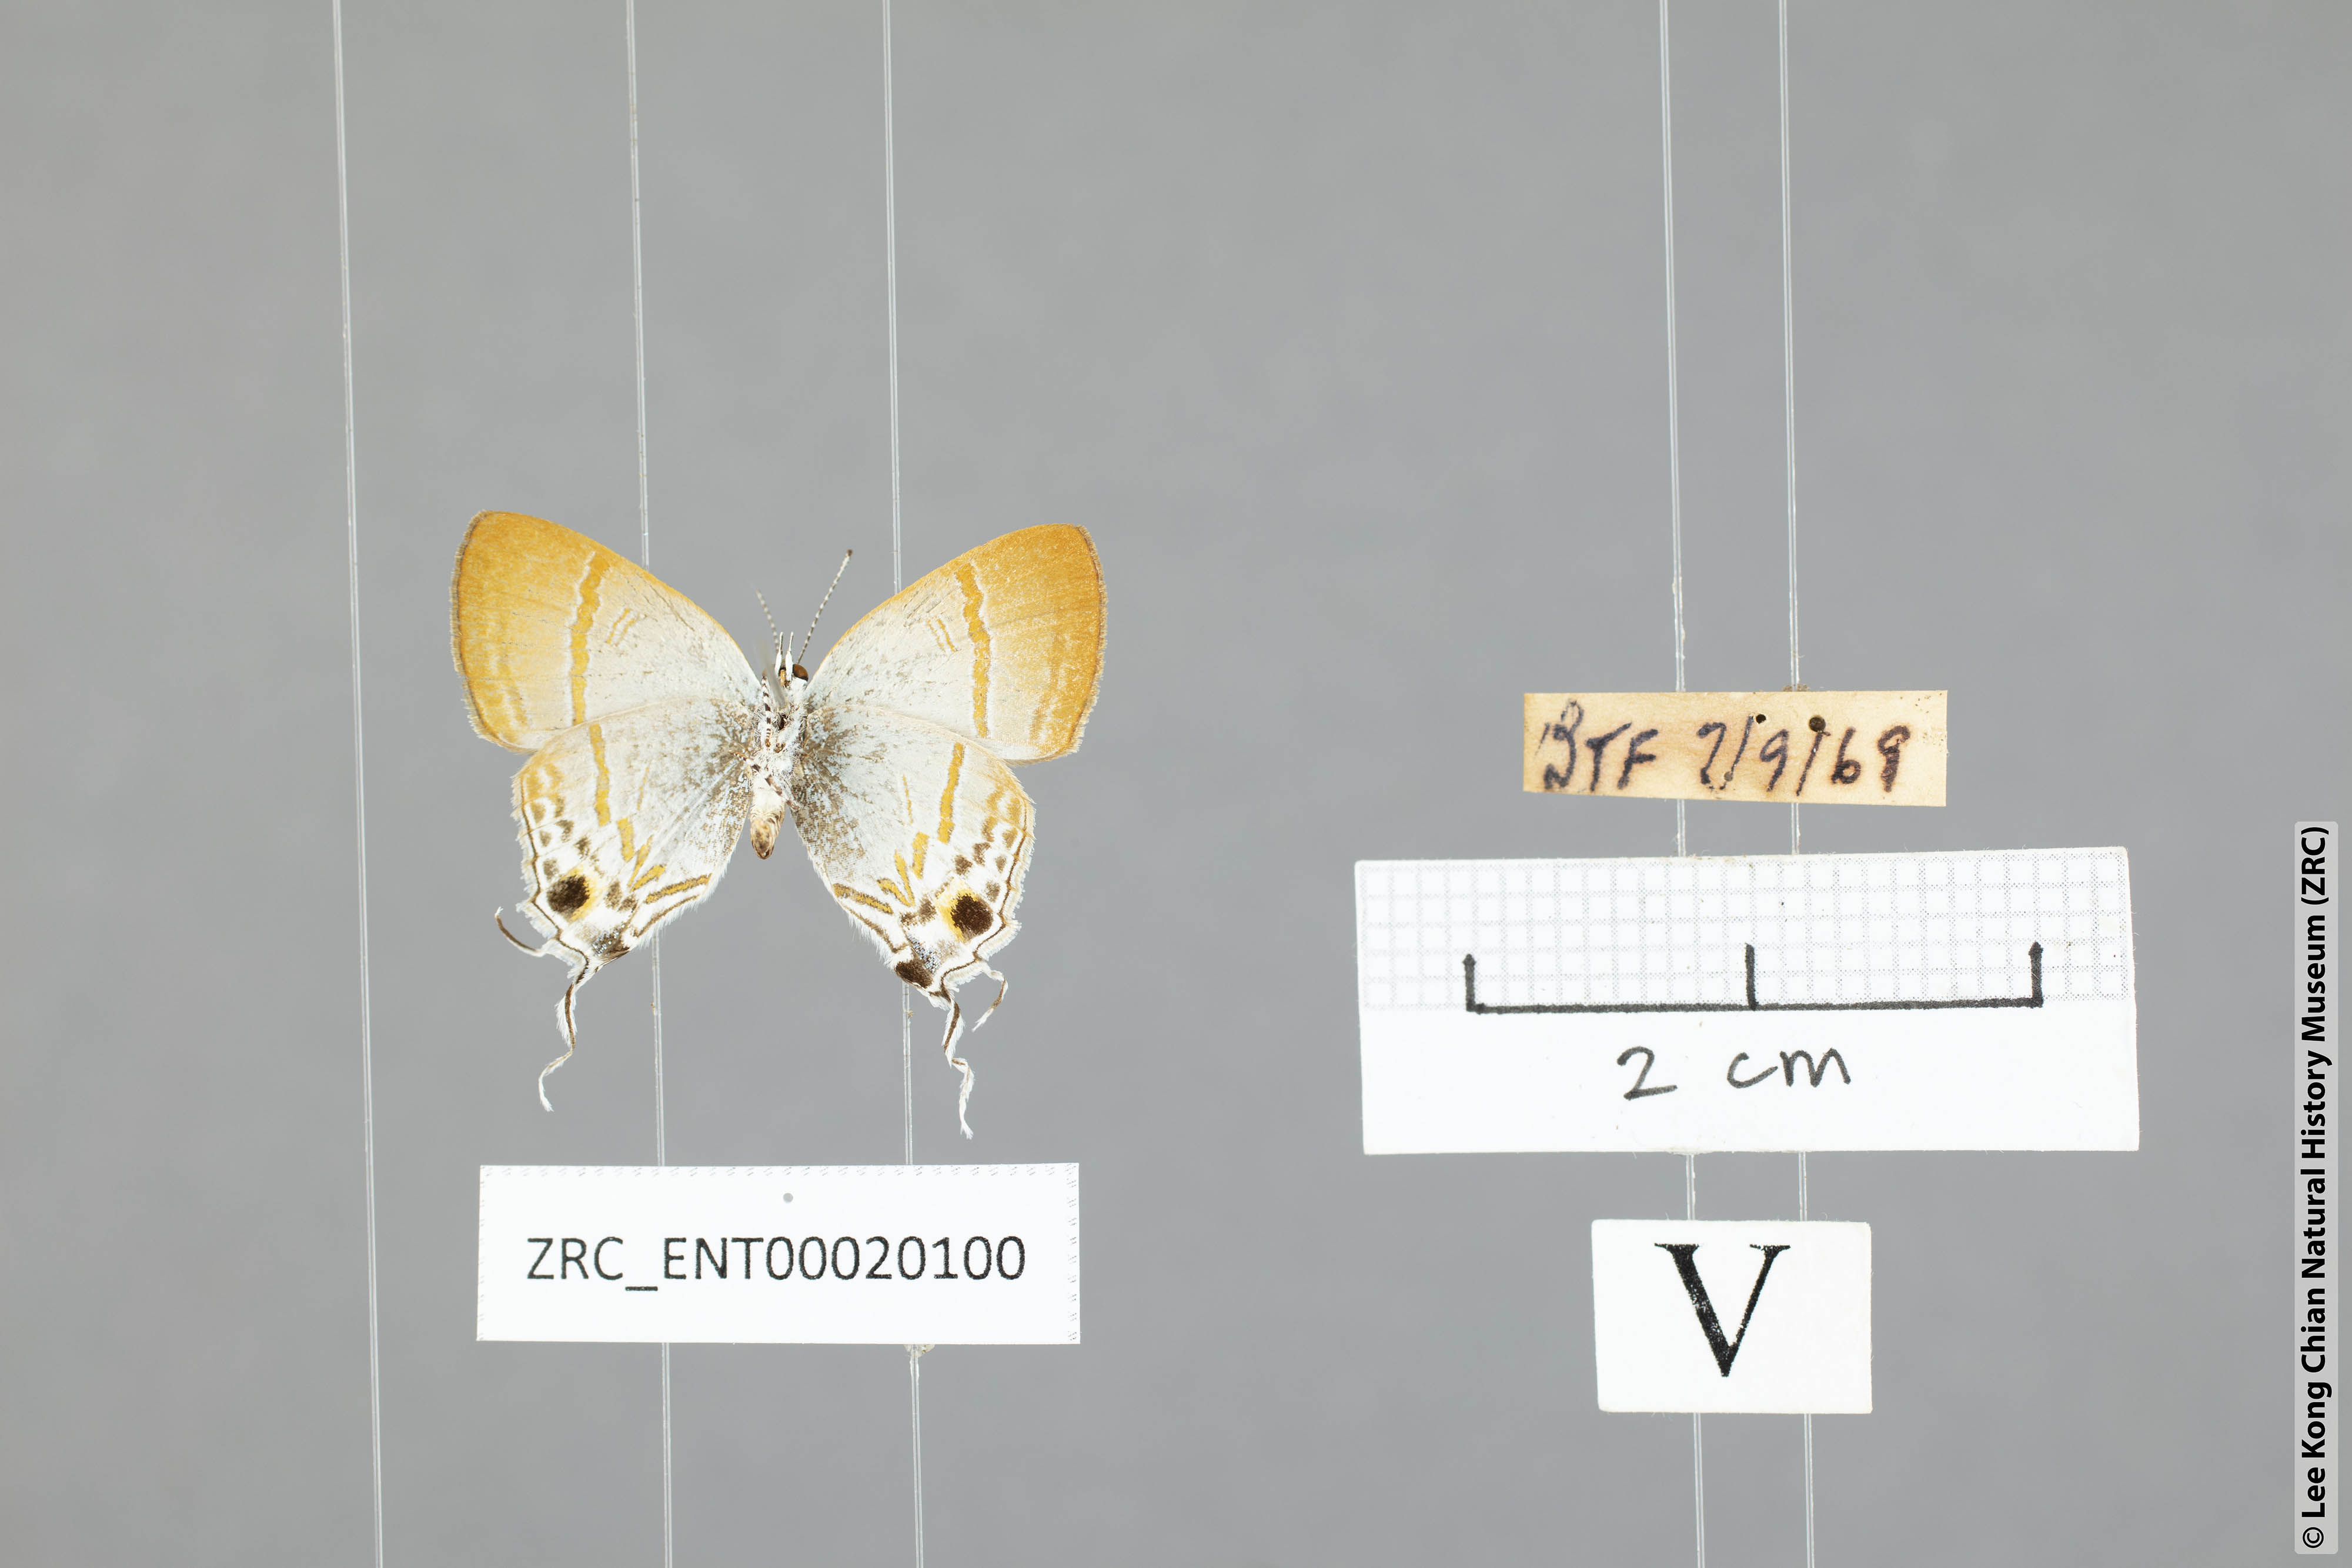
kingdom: Animalia
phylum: Arthropoda
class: Insecta
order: Lepidoptera
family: Lycaenidae
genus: Hypolycaena
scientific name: Hypolycaena merguia
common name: Purple tit
